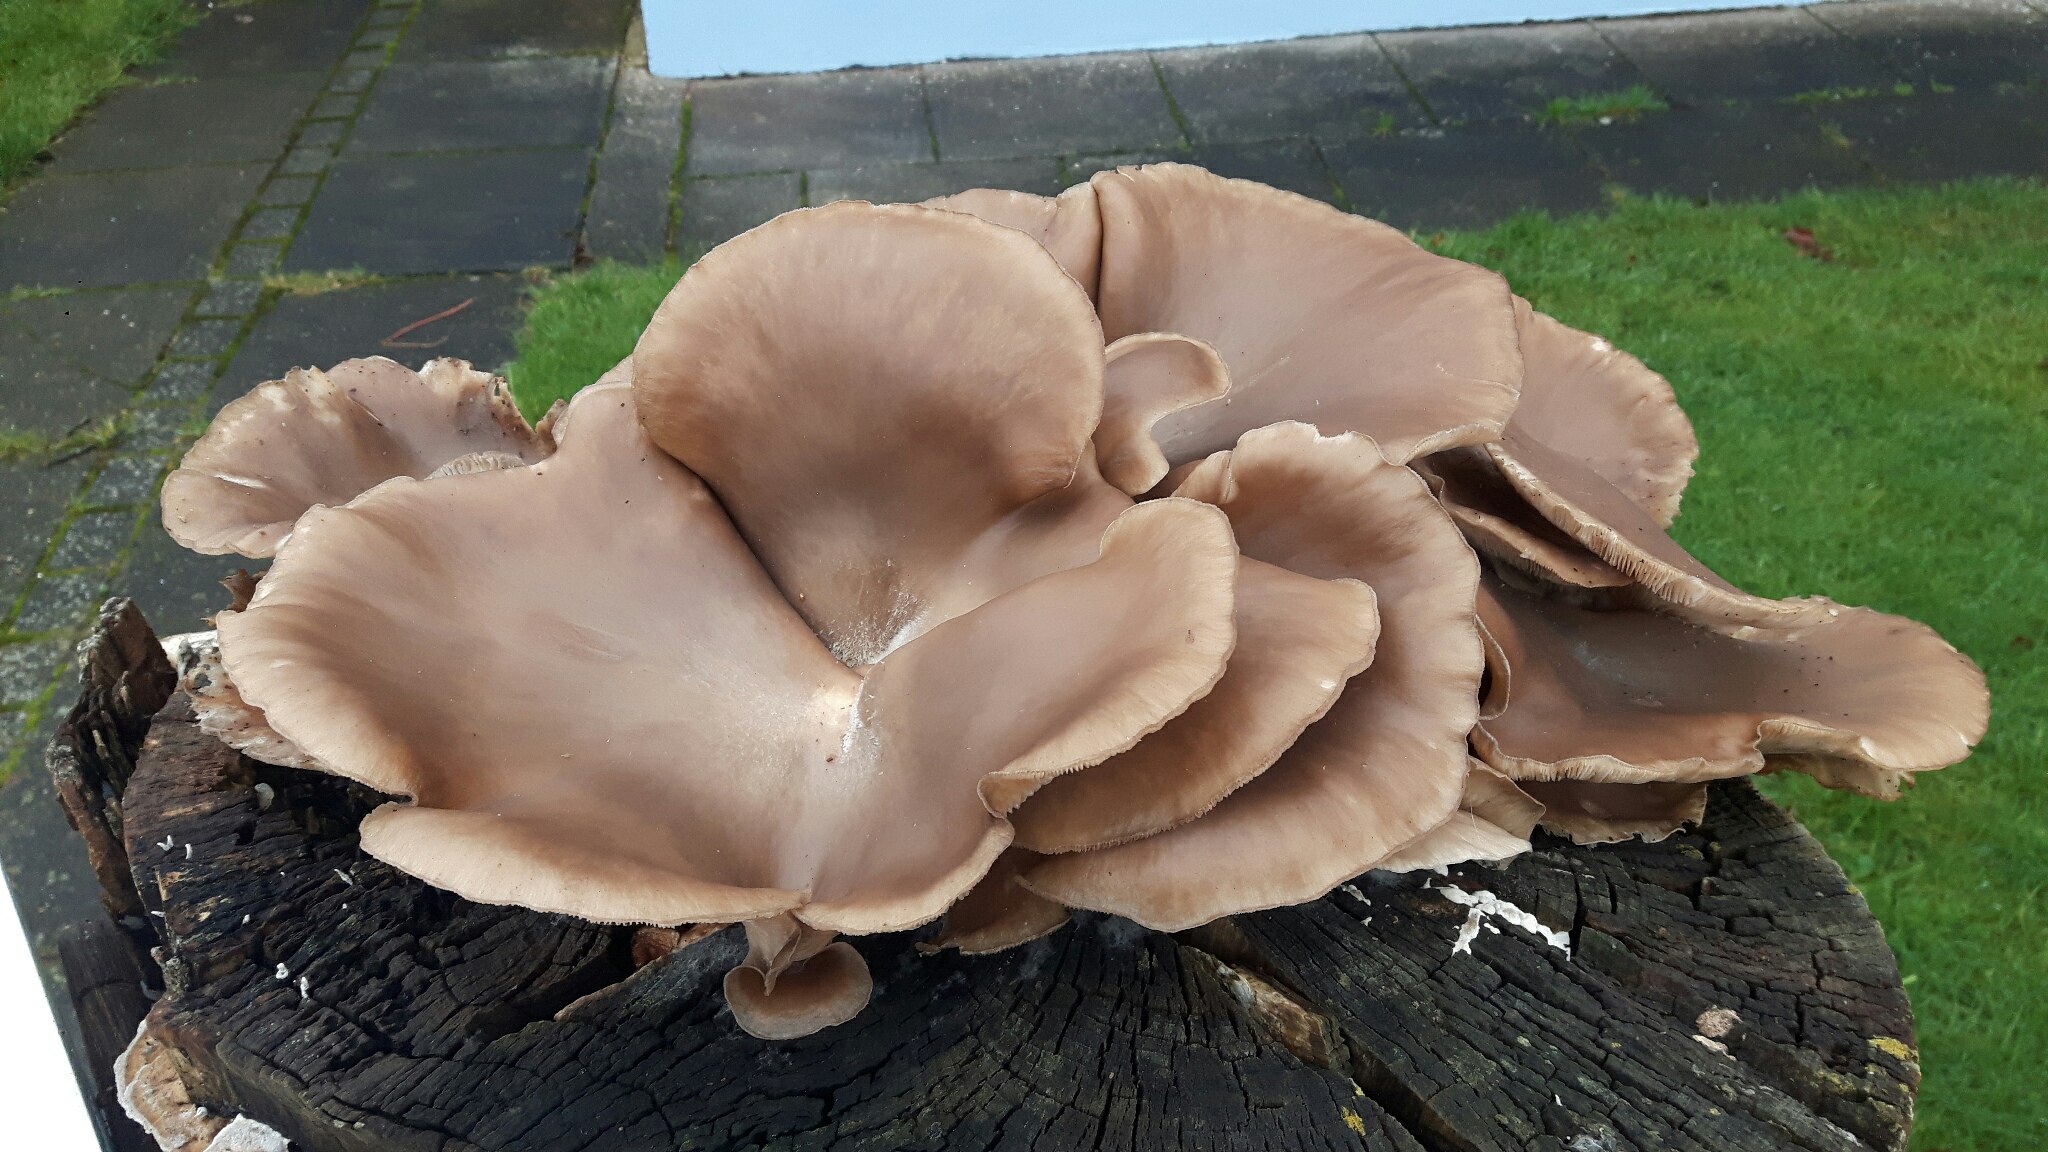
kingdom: Fungi
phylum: Basidiomycota
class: Agaricomycetes
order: Agaricales
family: Pleurotaceae
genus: Pleurotus
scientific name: Pleurotus ostreatus
